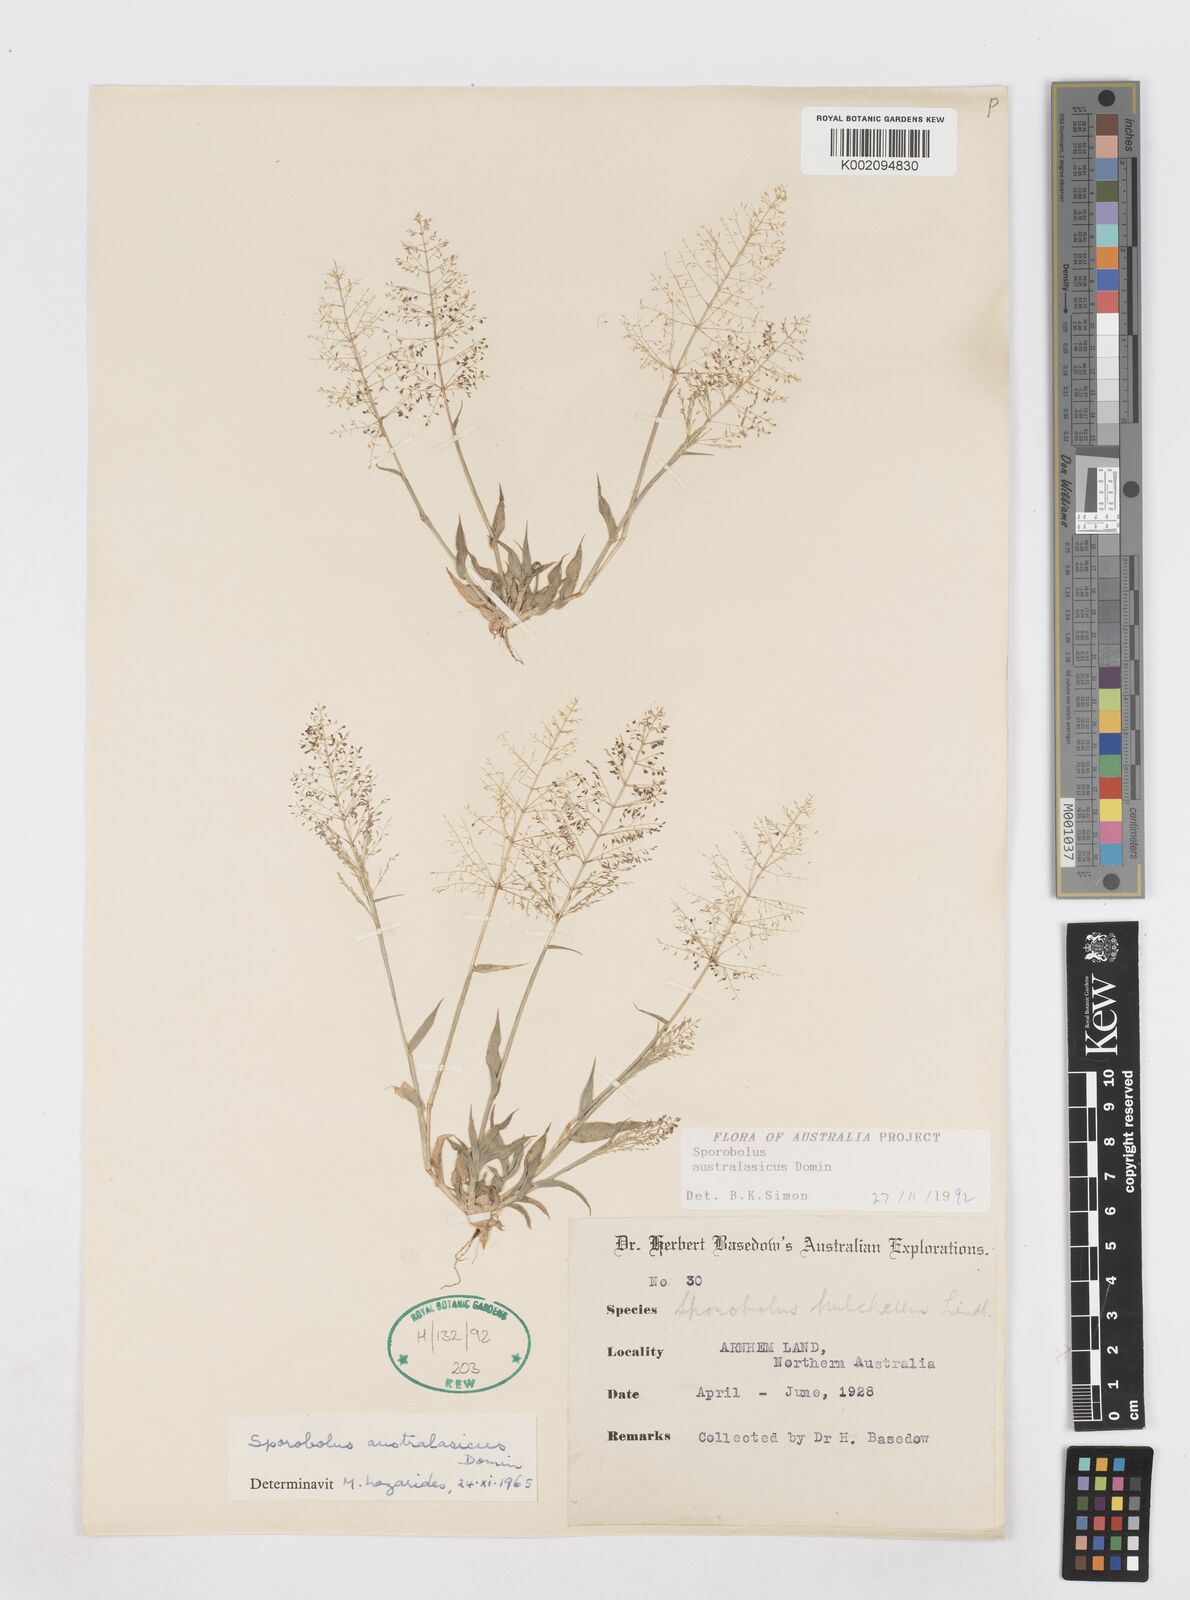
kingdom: Plantae
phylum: Tracheophyta
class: Liliopsida
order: Poales
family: Poaceae
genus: Sporobolus
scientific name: Sporobolus australasicus
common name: Australian dropseed
